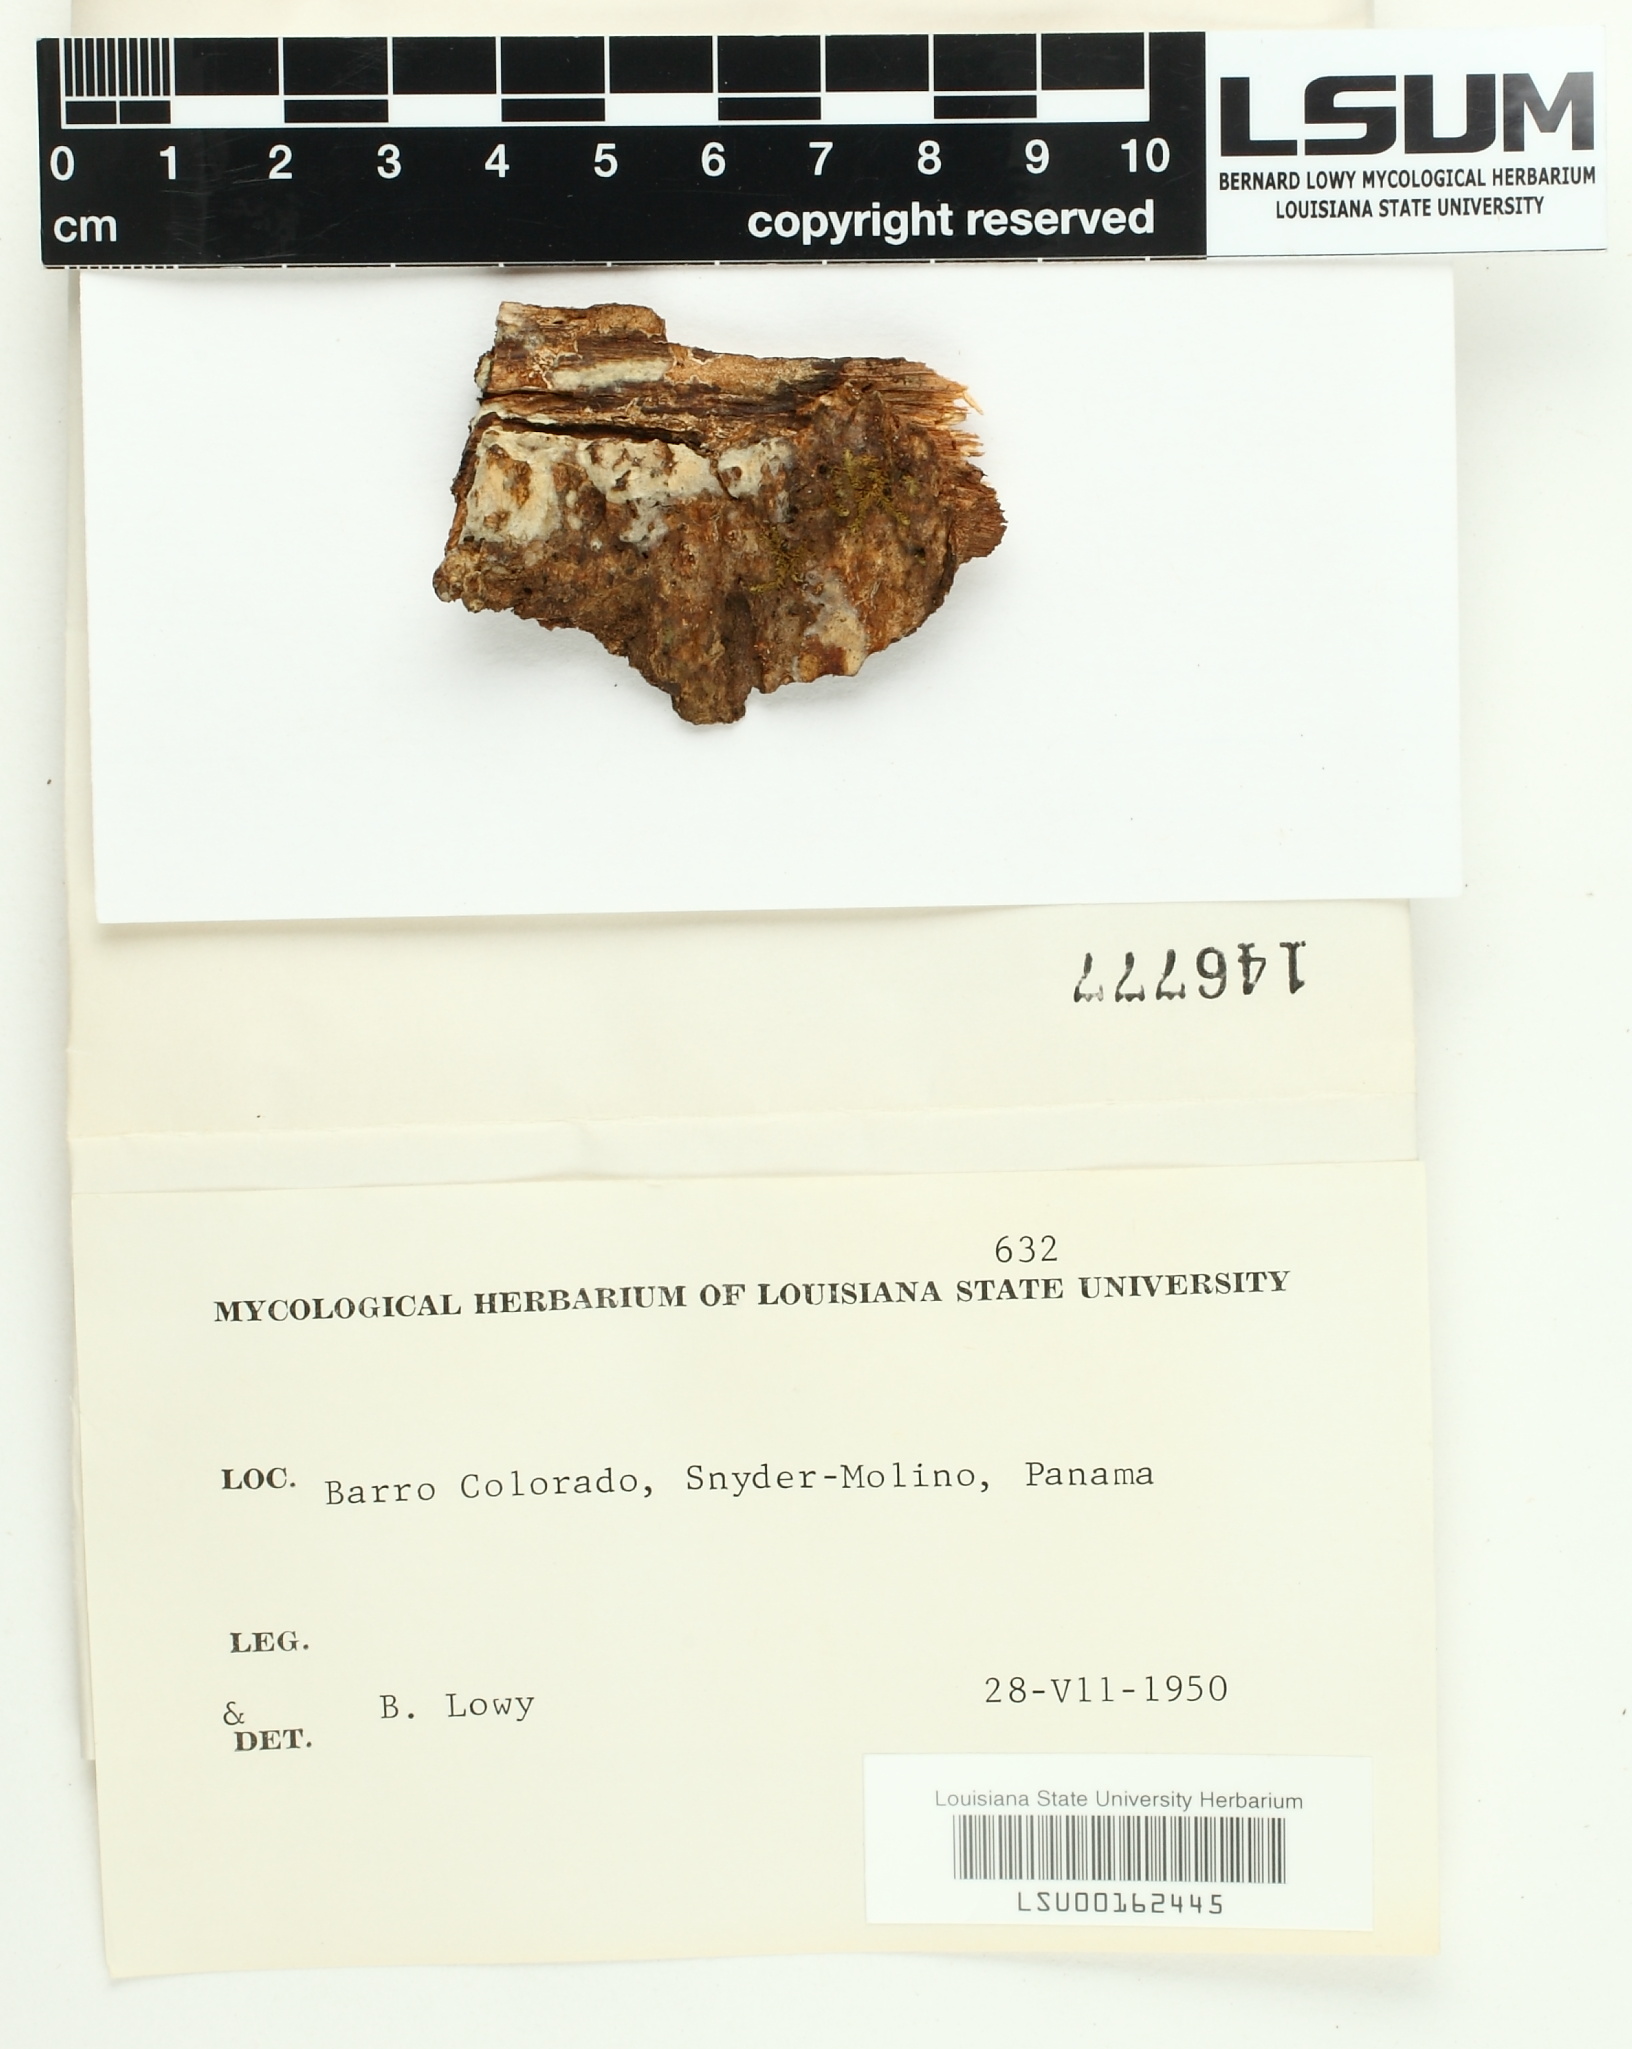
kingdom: Fungi
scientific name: Fungi
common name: Fungi
